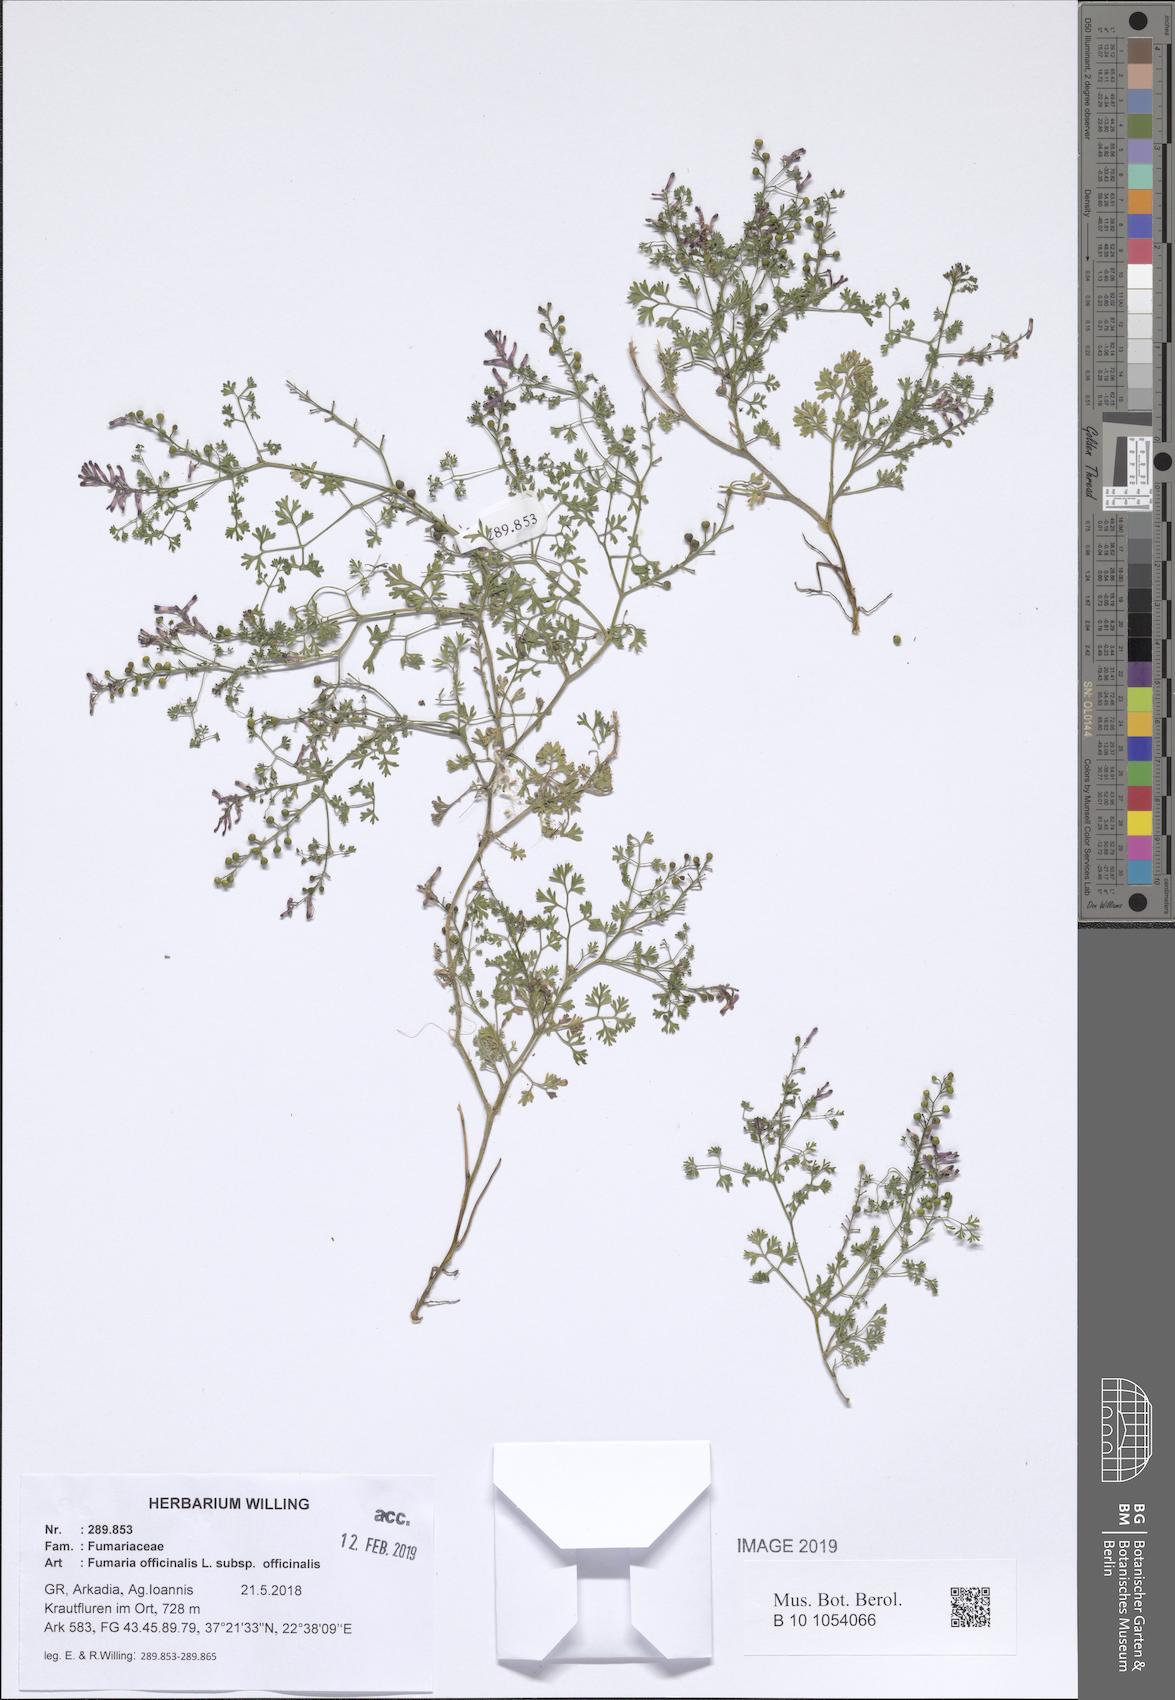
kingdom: Plantae
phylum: Tracheophyta
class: Magnoliopsida
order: Ranunculales
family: Papaveraceae
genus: Fumaria
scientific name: Fumaria officinalis
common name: Common fumitory
